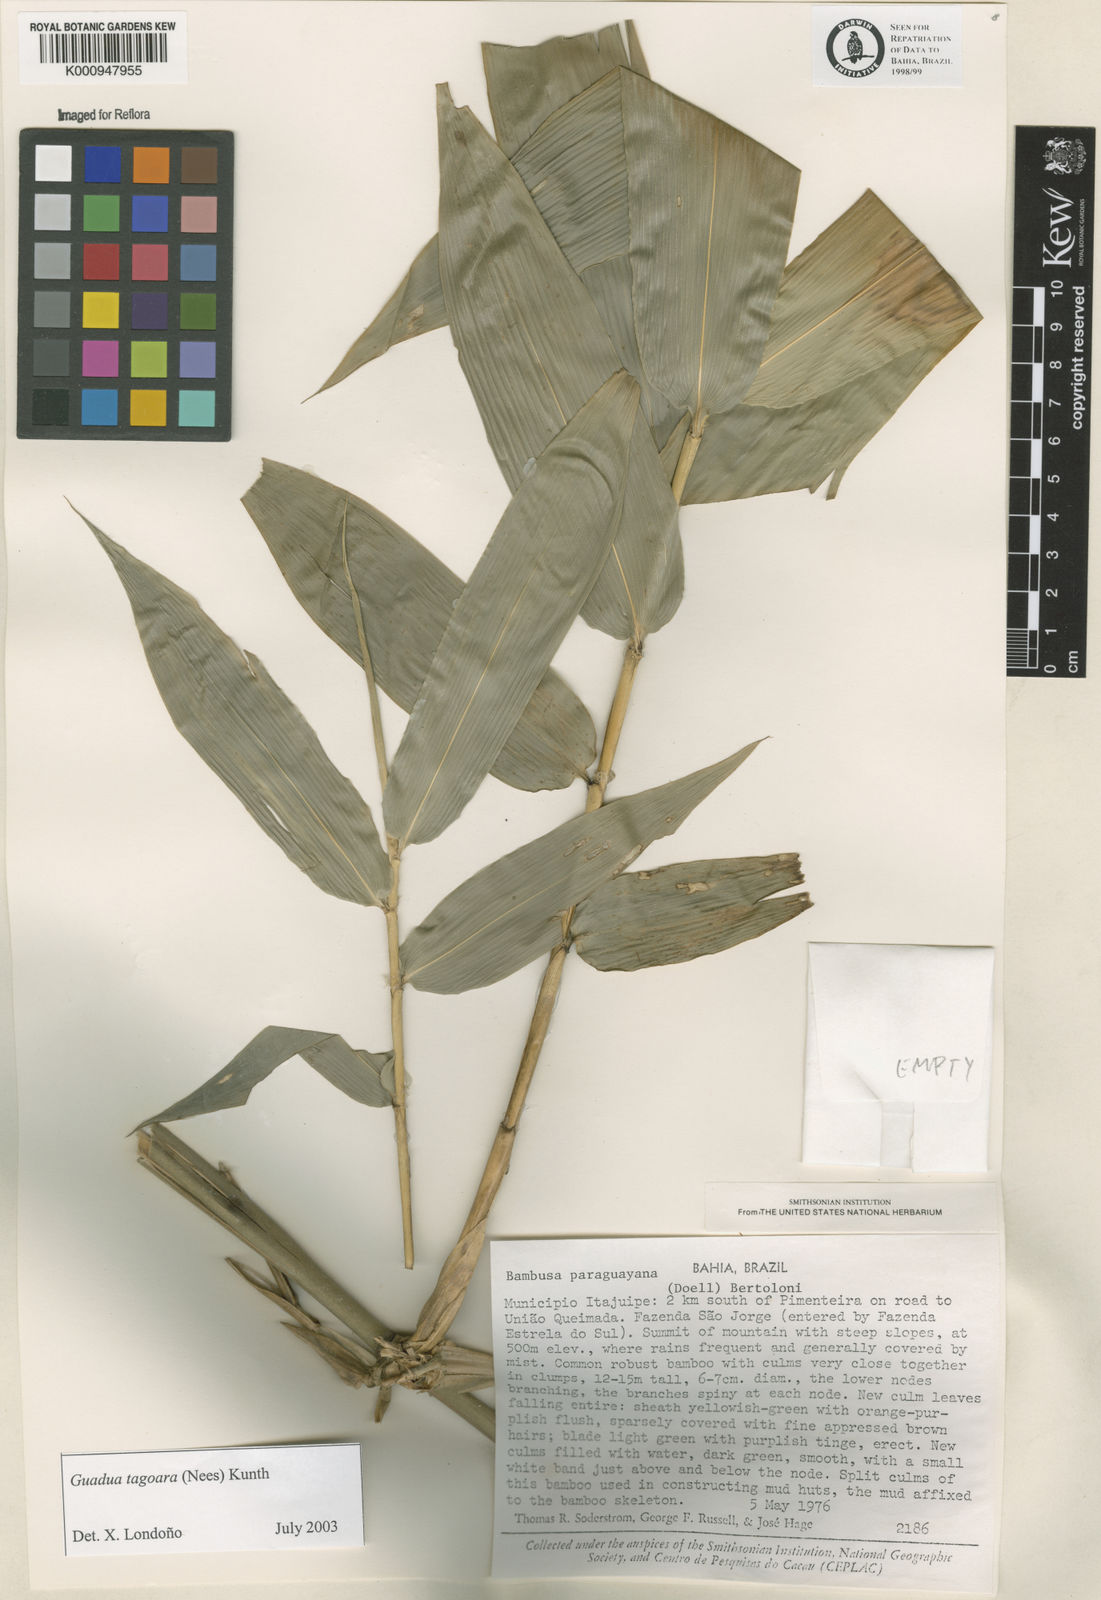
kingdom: Plantae
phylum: Tracheophyta
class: Liliopsida
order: Poales
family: Poaceae
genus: Guadua
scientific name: Guadua tagoara
